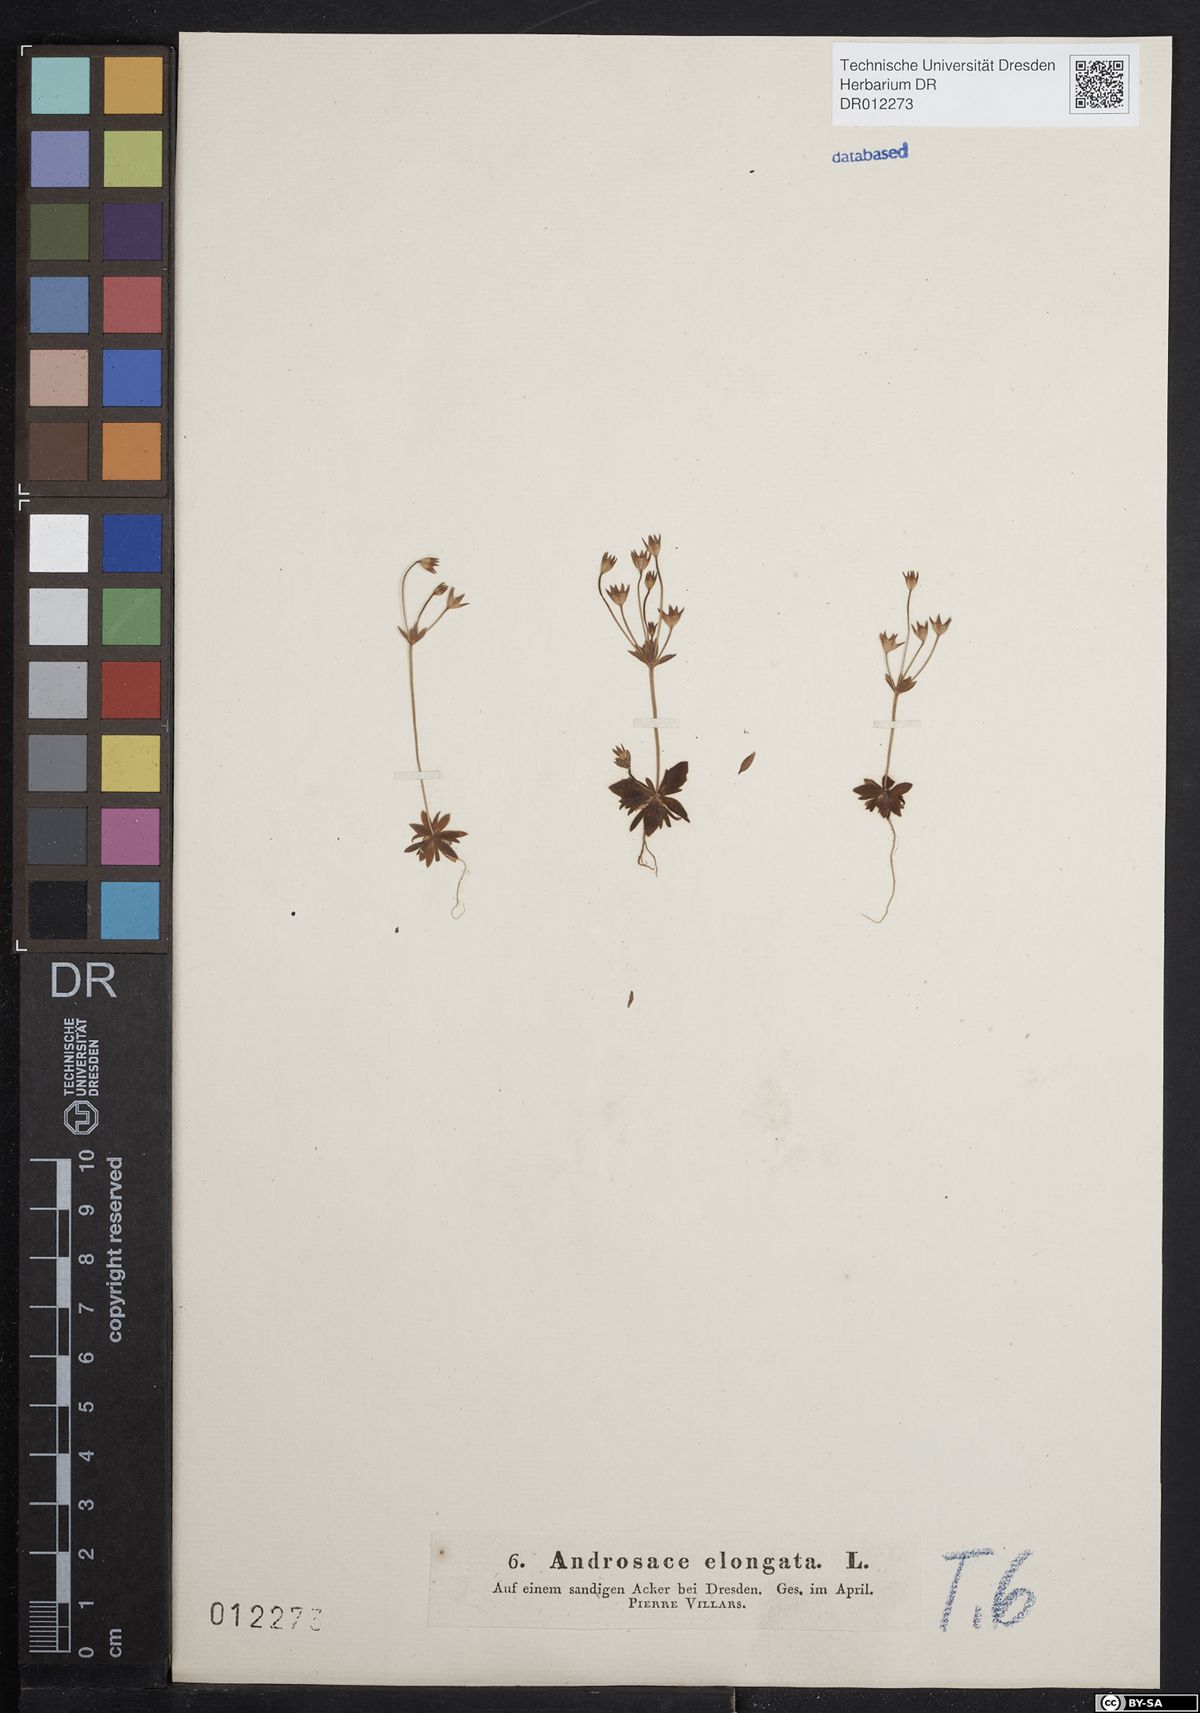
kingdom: Plantae
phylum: Tracheophyta
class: Magnoliopsida
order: Ericales
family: Primulaceae
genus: Androsace
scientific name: Androsace elongata
